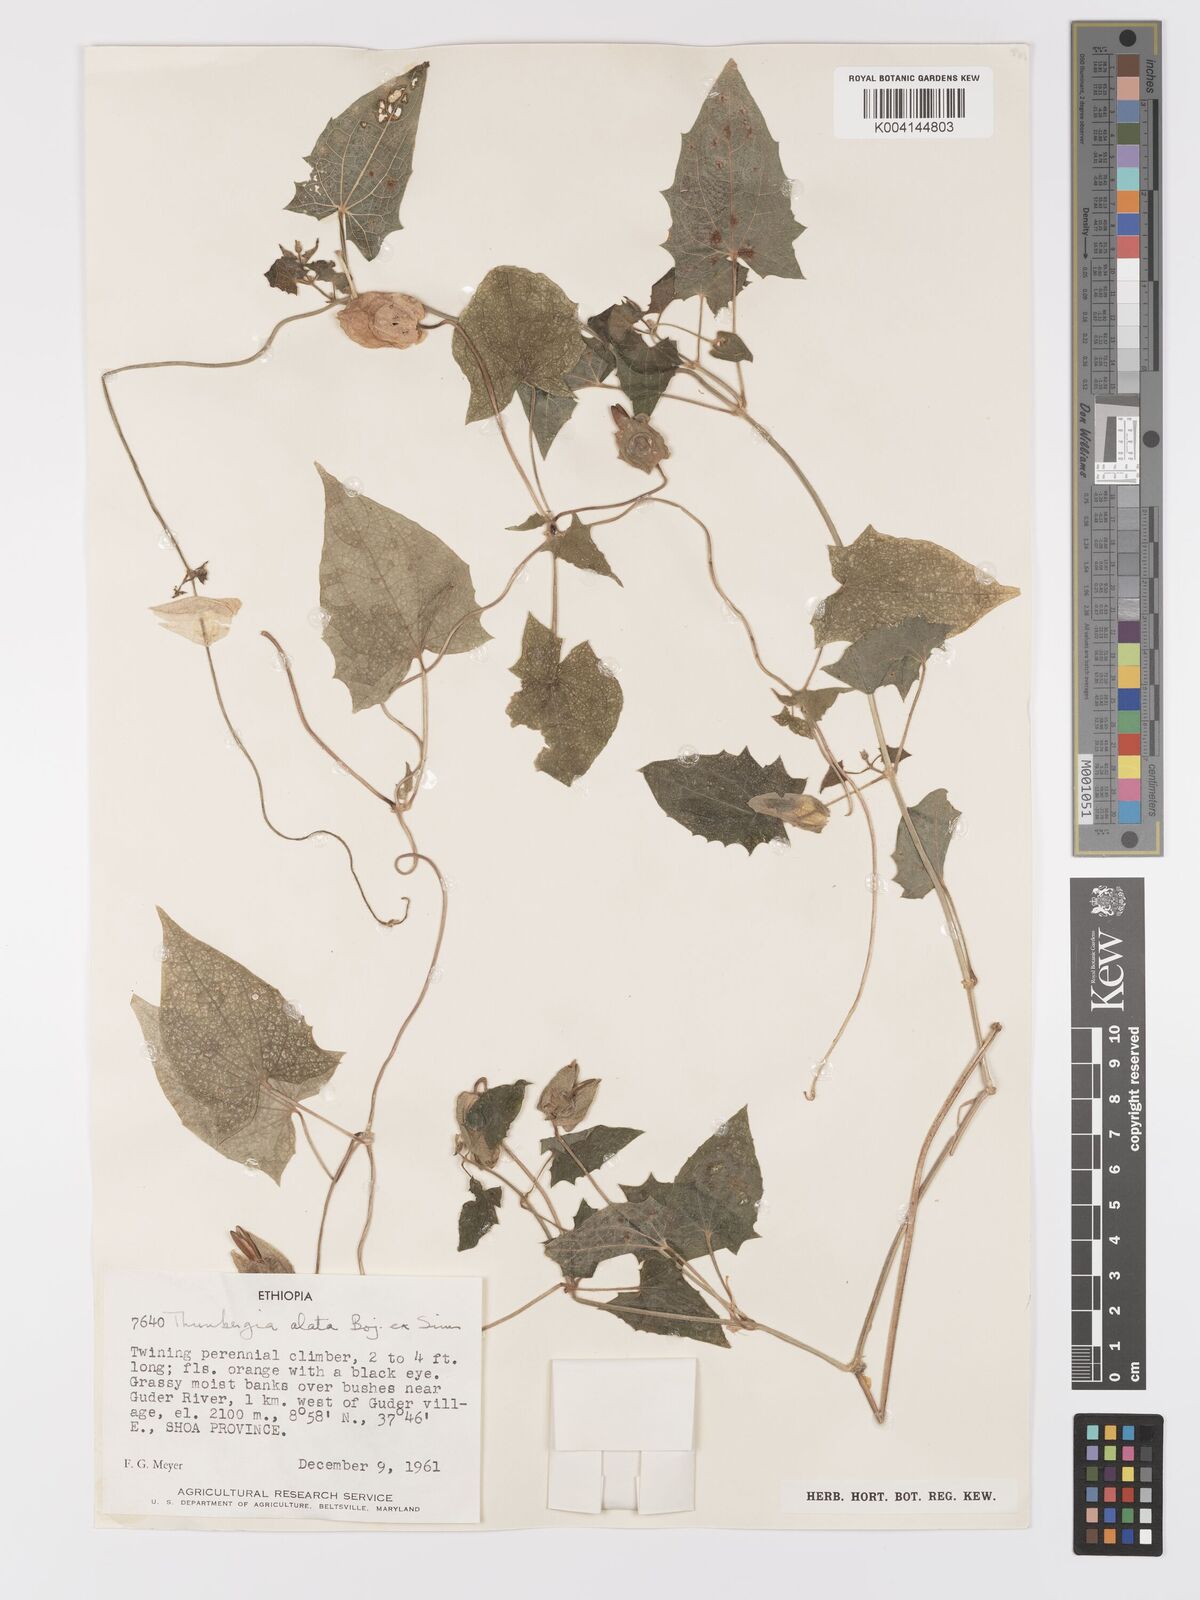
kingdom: Plantae
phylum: Tracheophyta
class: Magnoliopsida
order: Lamiales
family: Acanthaceae
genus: Thunbergia
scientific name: Thunbergia alata
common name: Blackeyed susan vine
